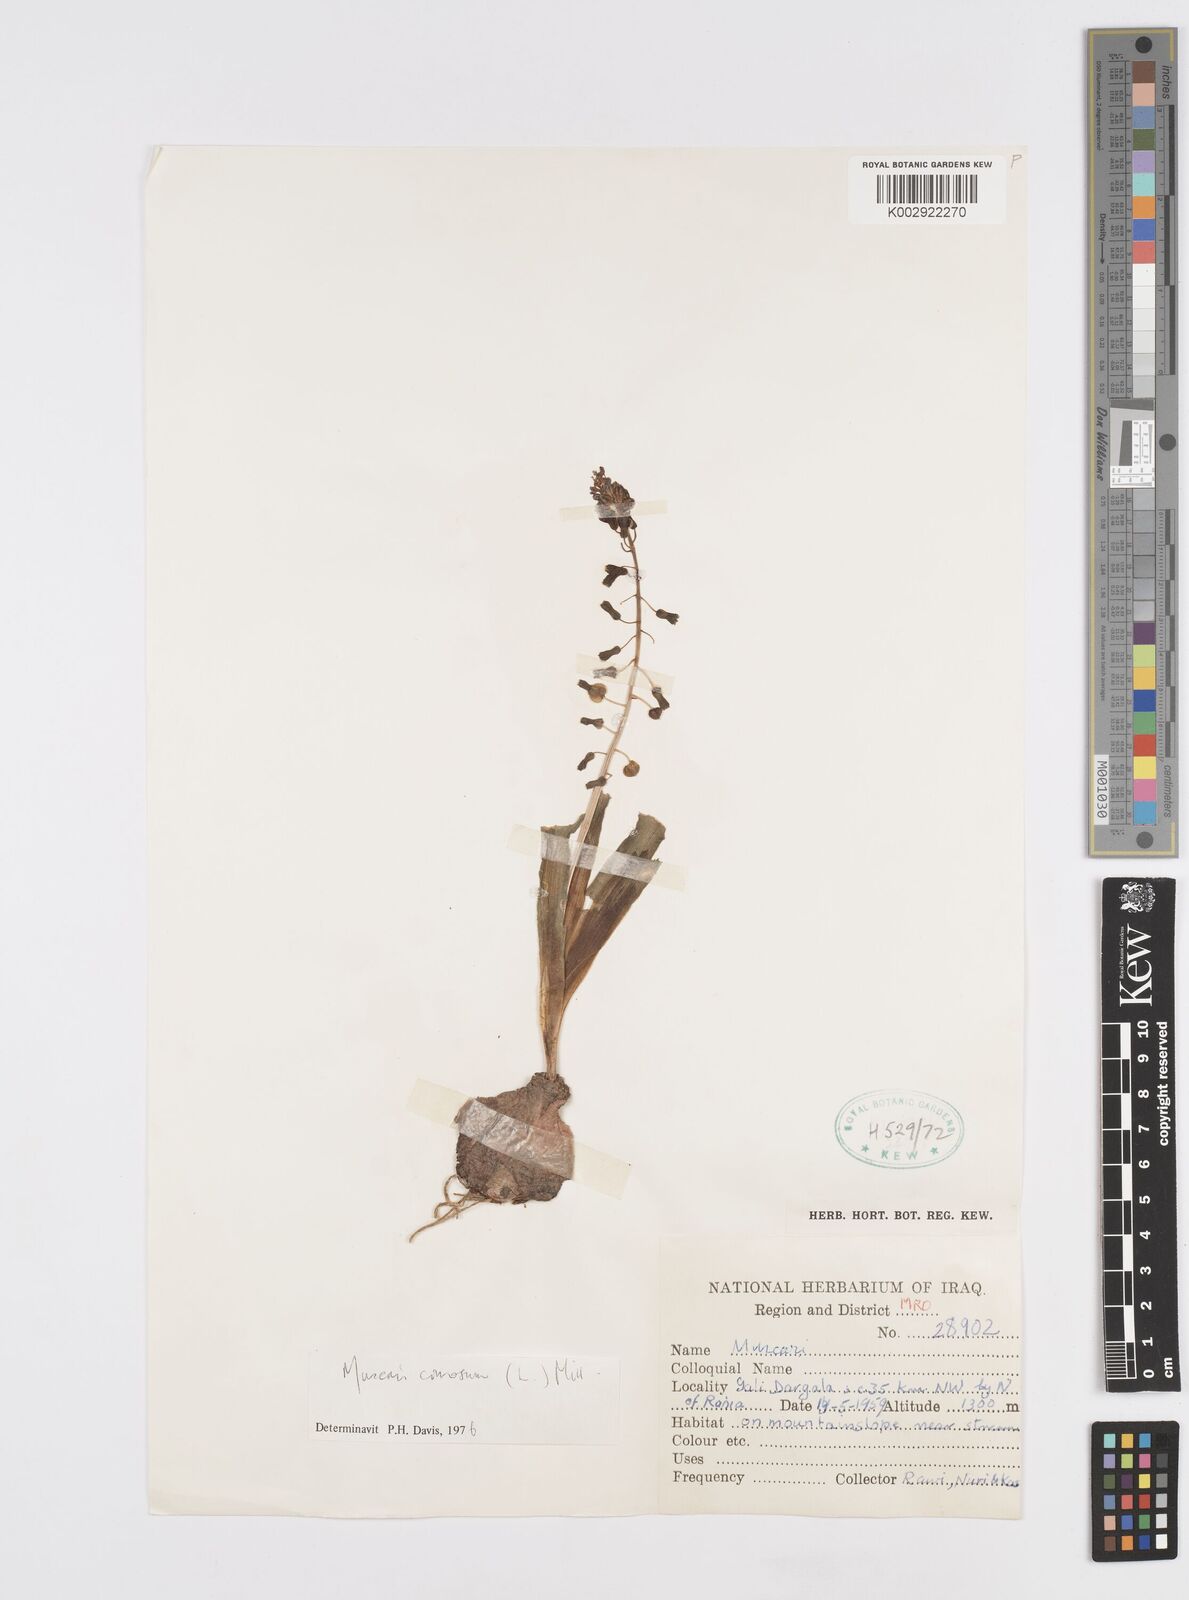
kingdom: Plantae
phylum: Tracheophyta
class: Liliopsida
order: Asparagales
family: Asparagaceae
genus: Muscari
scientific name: Muscari comosum
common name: Tassel hyacinth
